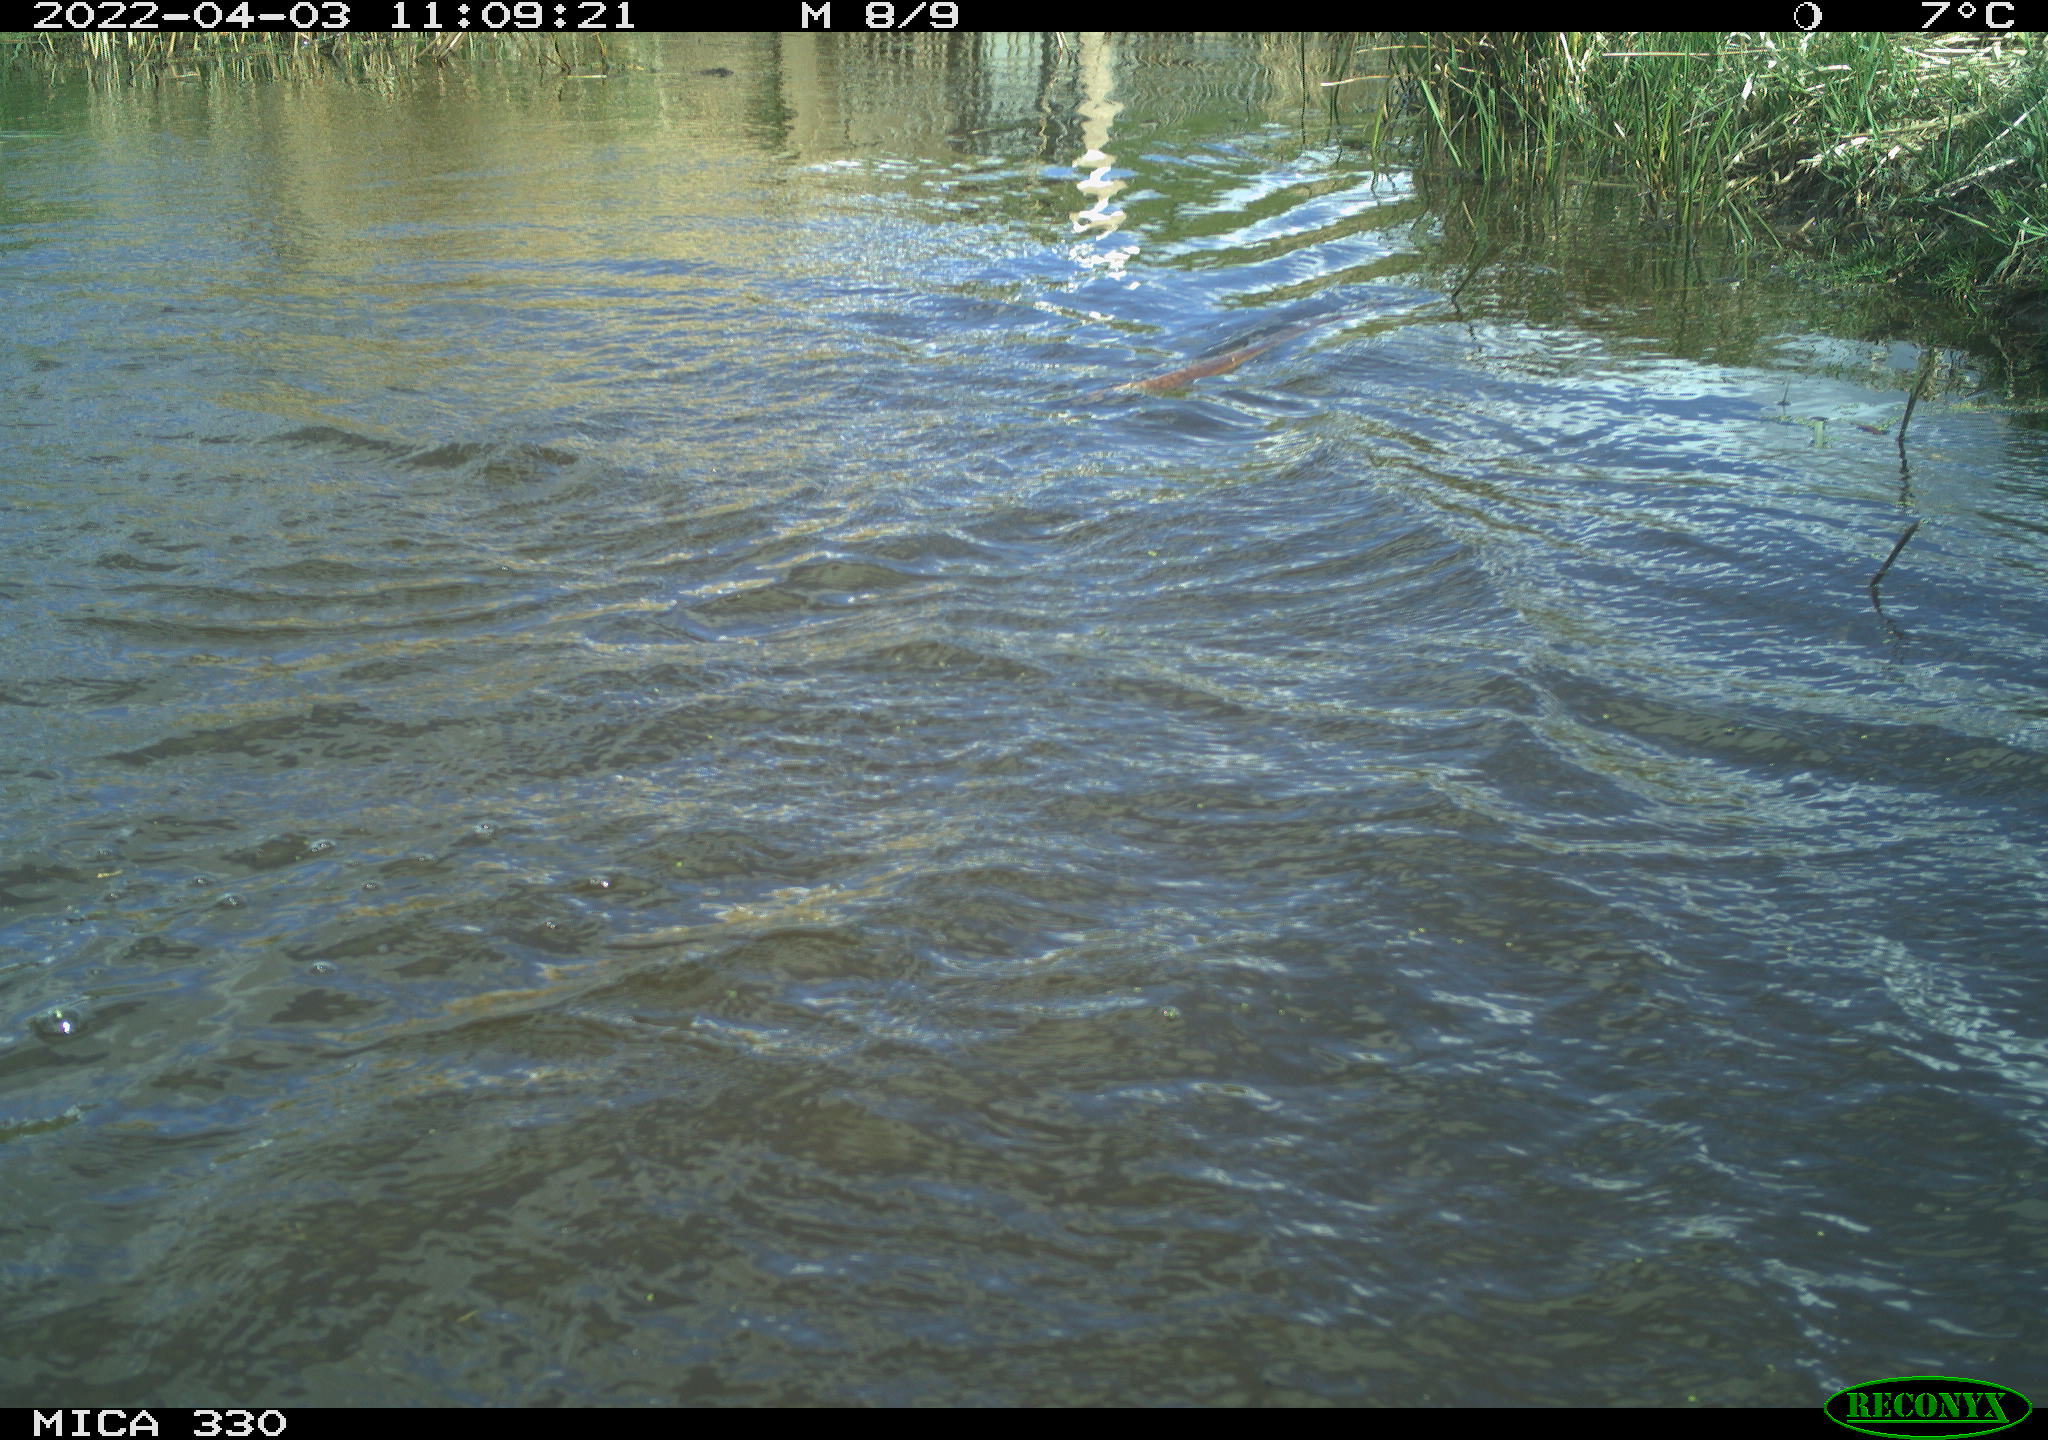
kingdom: Animalia
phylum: Chordata
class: Aves
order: Anseriformes
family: Anatidae
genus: Anas
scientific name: Anas platyrhynchos
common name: Mallard
